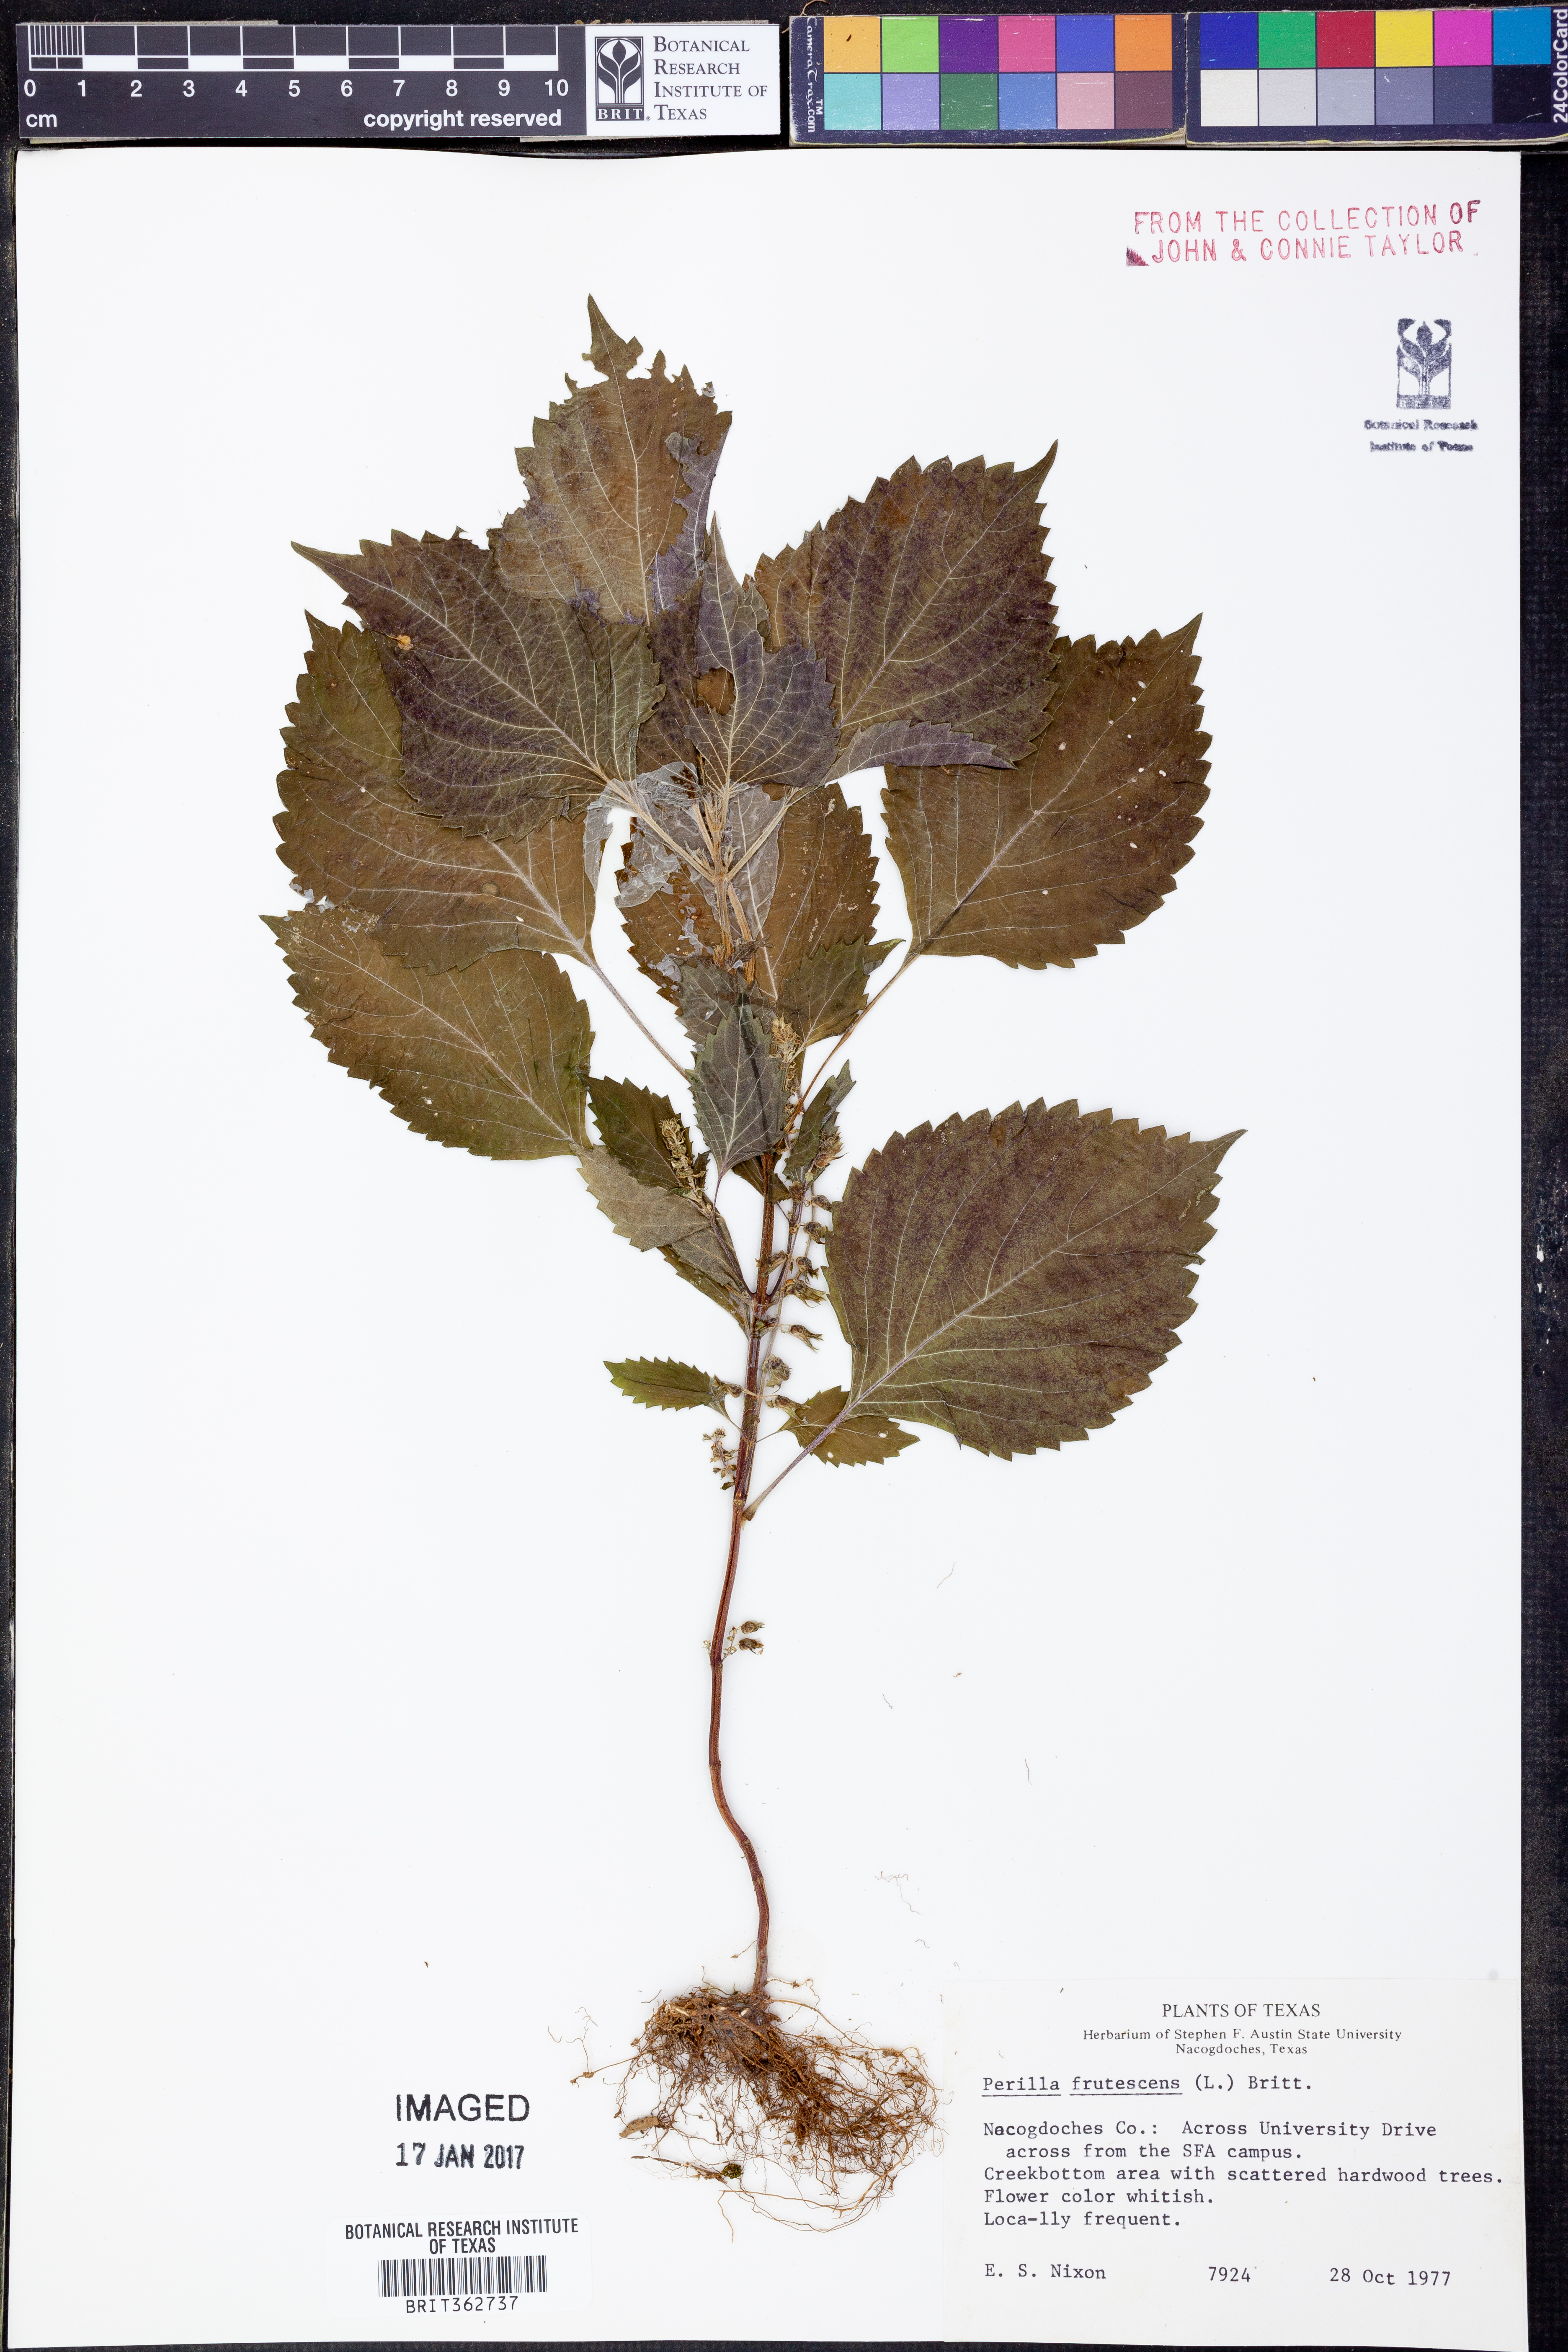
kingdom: Plantae
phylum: Tracheophyta
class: Magnoliopsida
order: Lamiales
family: Lamiaceae
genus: Perilla
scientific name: Perilla frutescens
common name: Perilla
